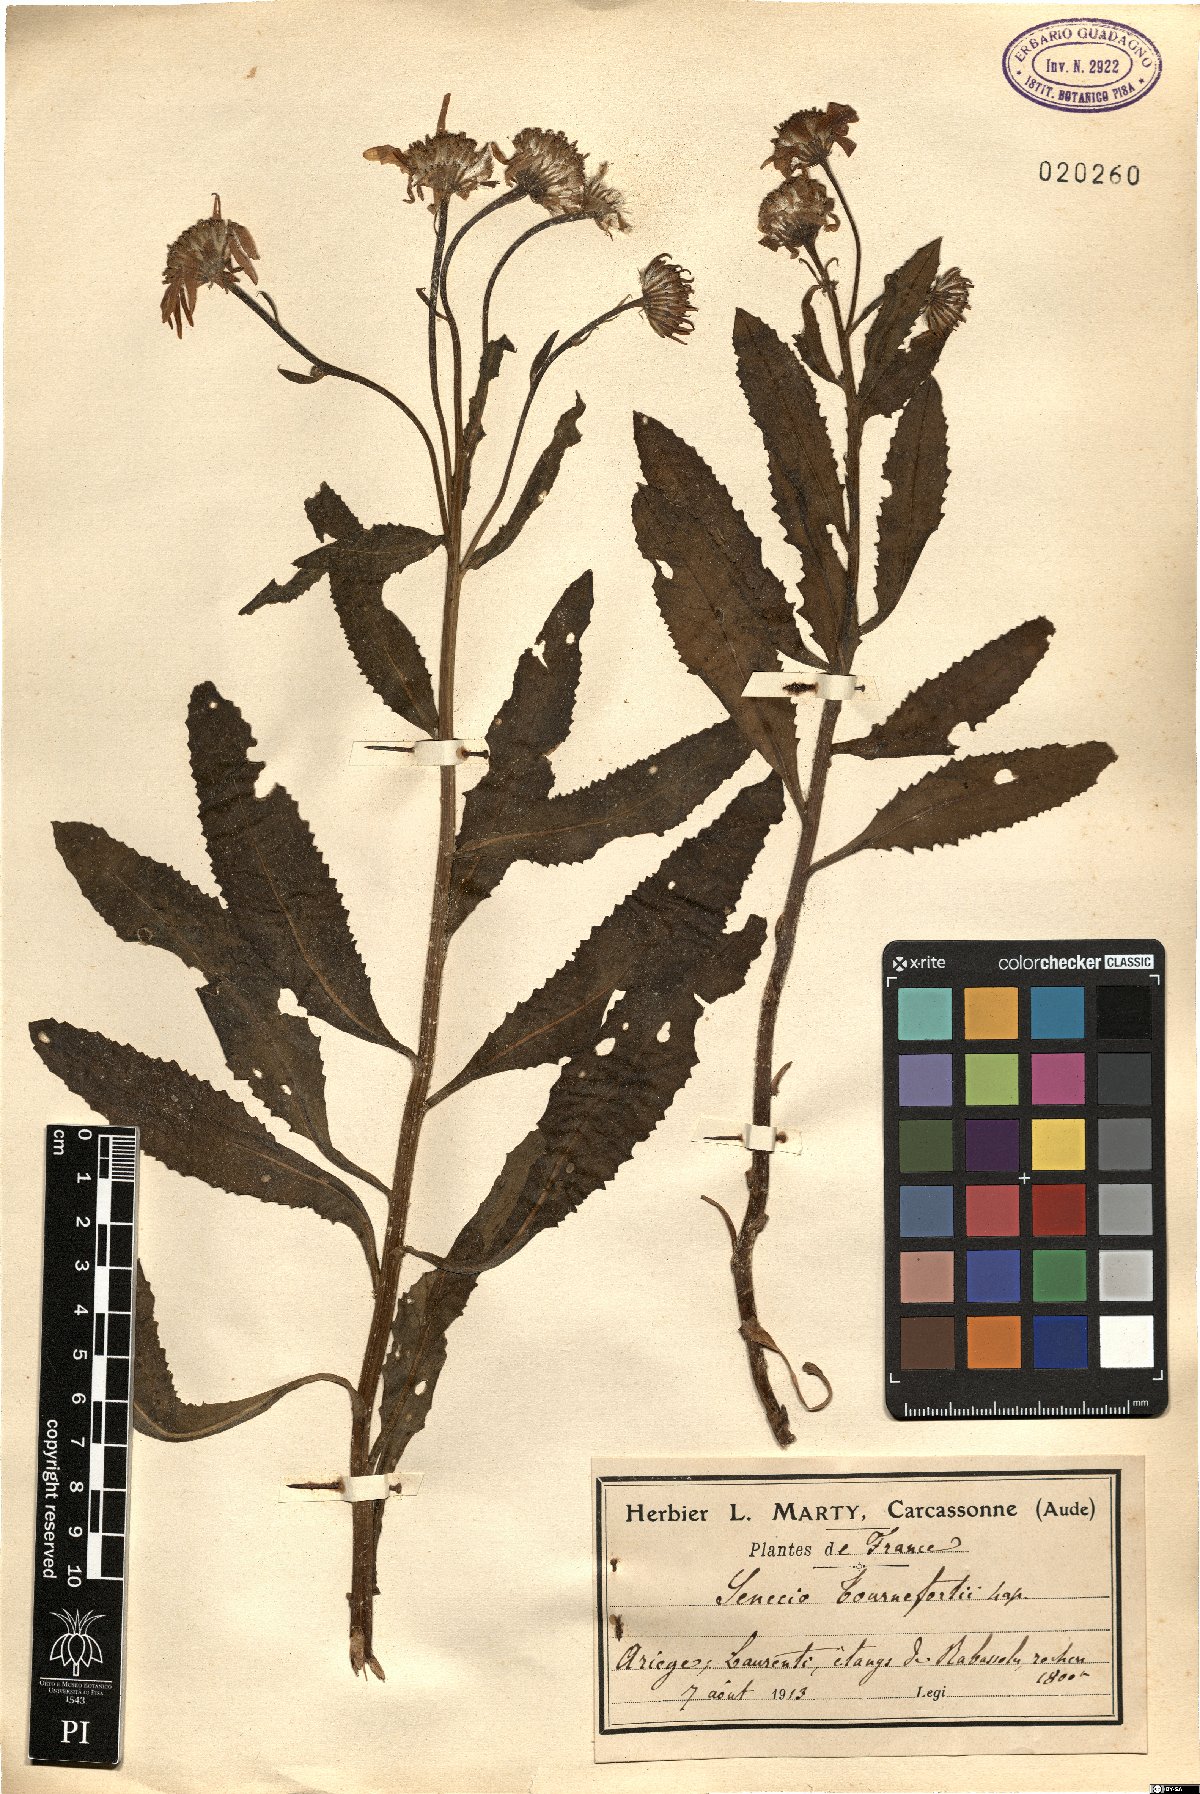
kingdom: Plantae
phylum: Tracheophyta
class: Magnoliopsida
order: Asterales
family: Asteraceae
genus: Senecio
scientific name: Senecio pyrenaicus
